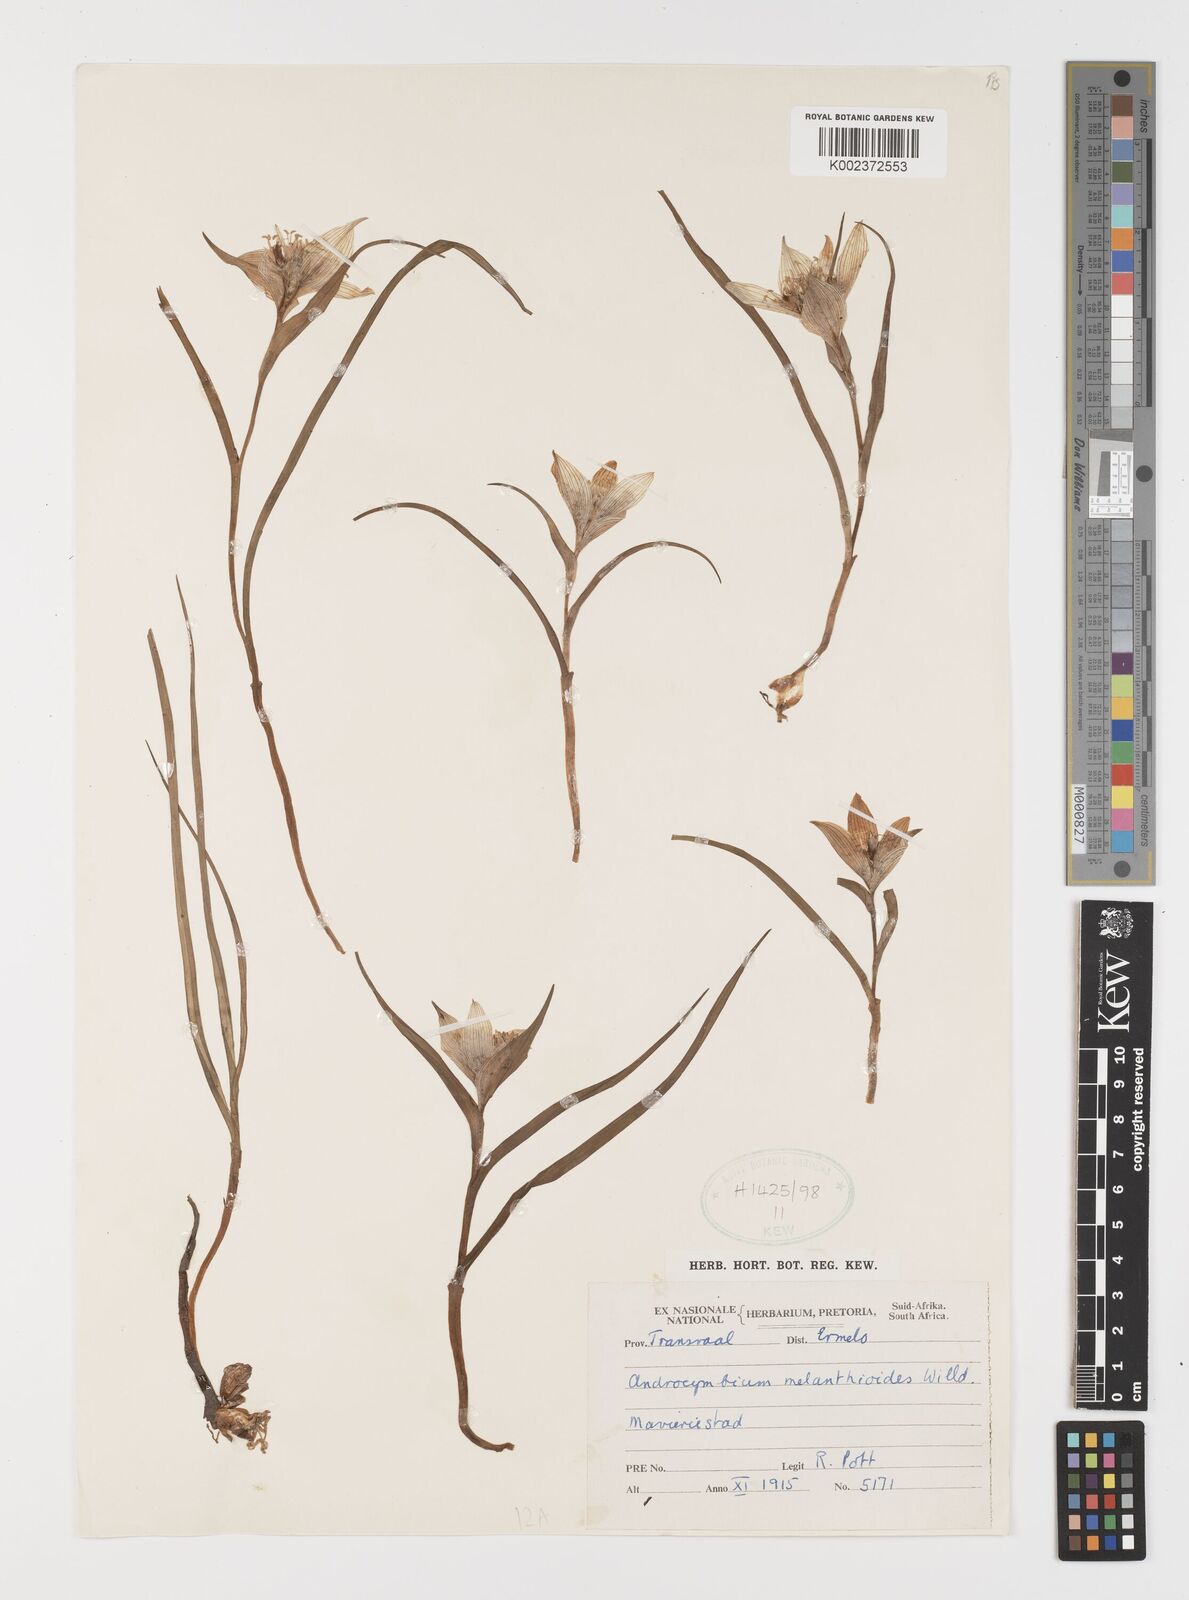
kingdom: Plantae
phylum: Tracheophyta
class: Liliopsida
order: Liliales
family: Colchicaceae
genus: Colchicum
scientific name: Colchicum melanthioides
